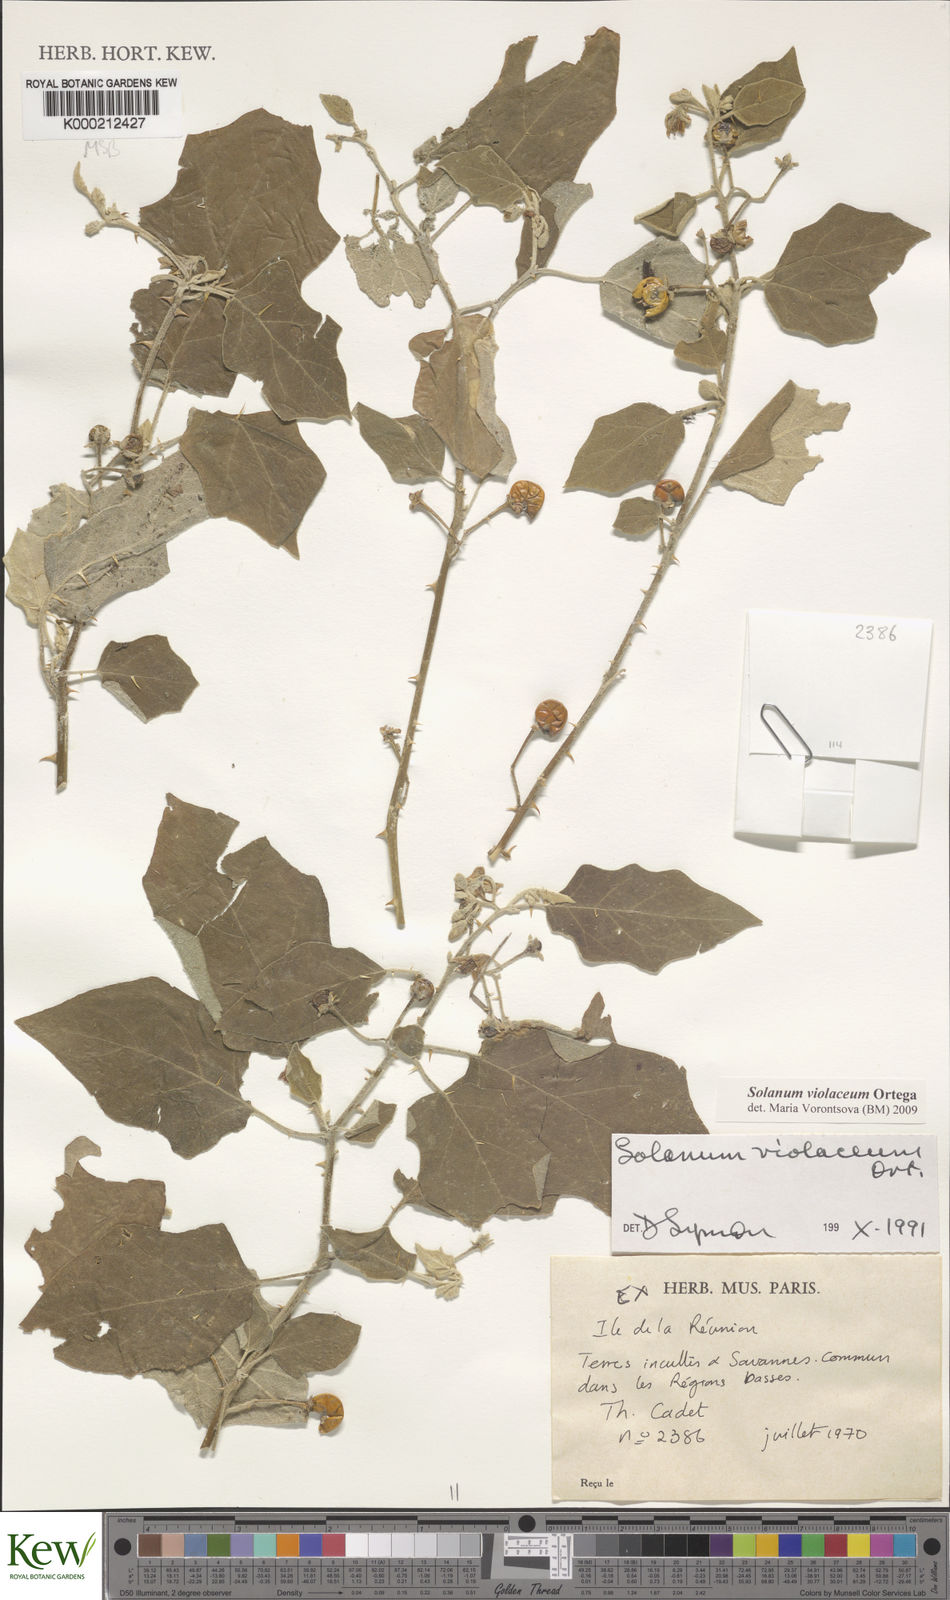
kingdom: Plantae
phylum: Tracheophyta
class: Magnoliopsida
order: Solanales
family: Solanaceae
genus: Solanum
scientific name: Solanum violaceum
